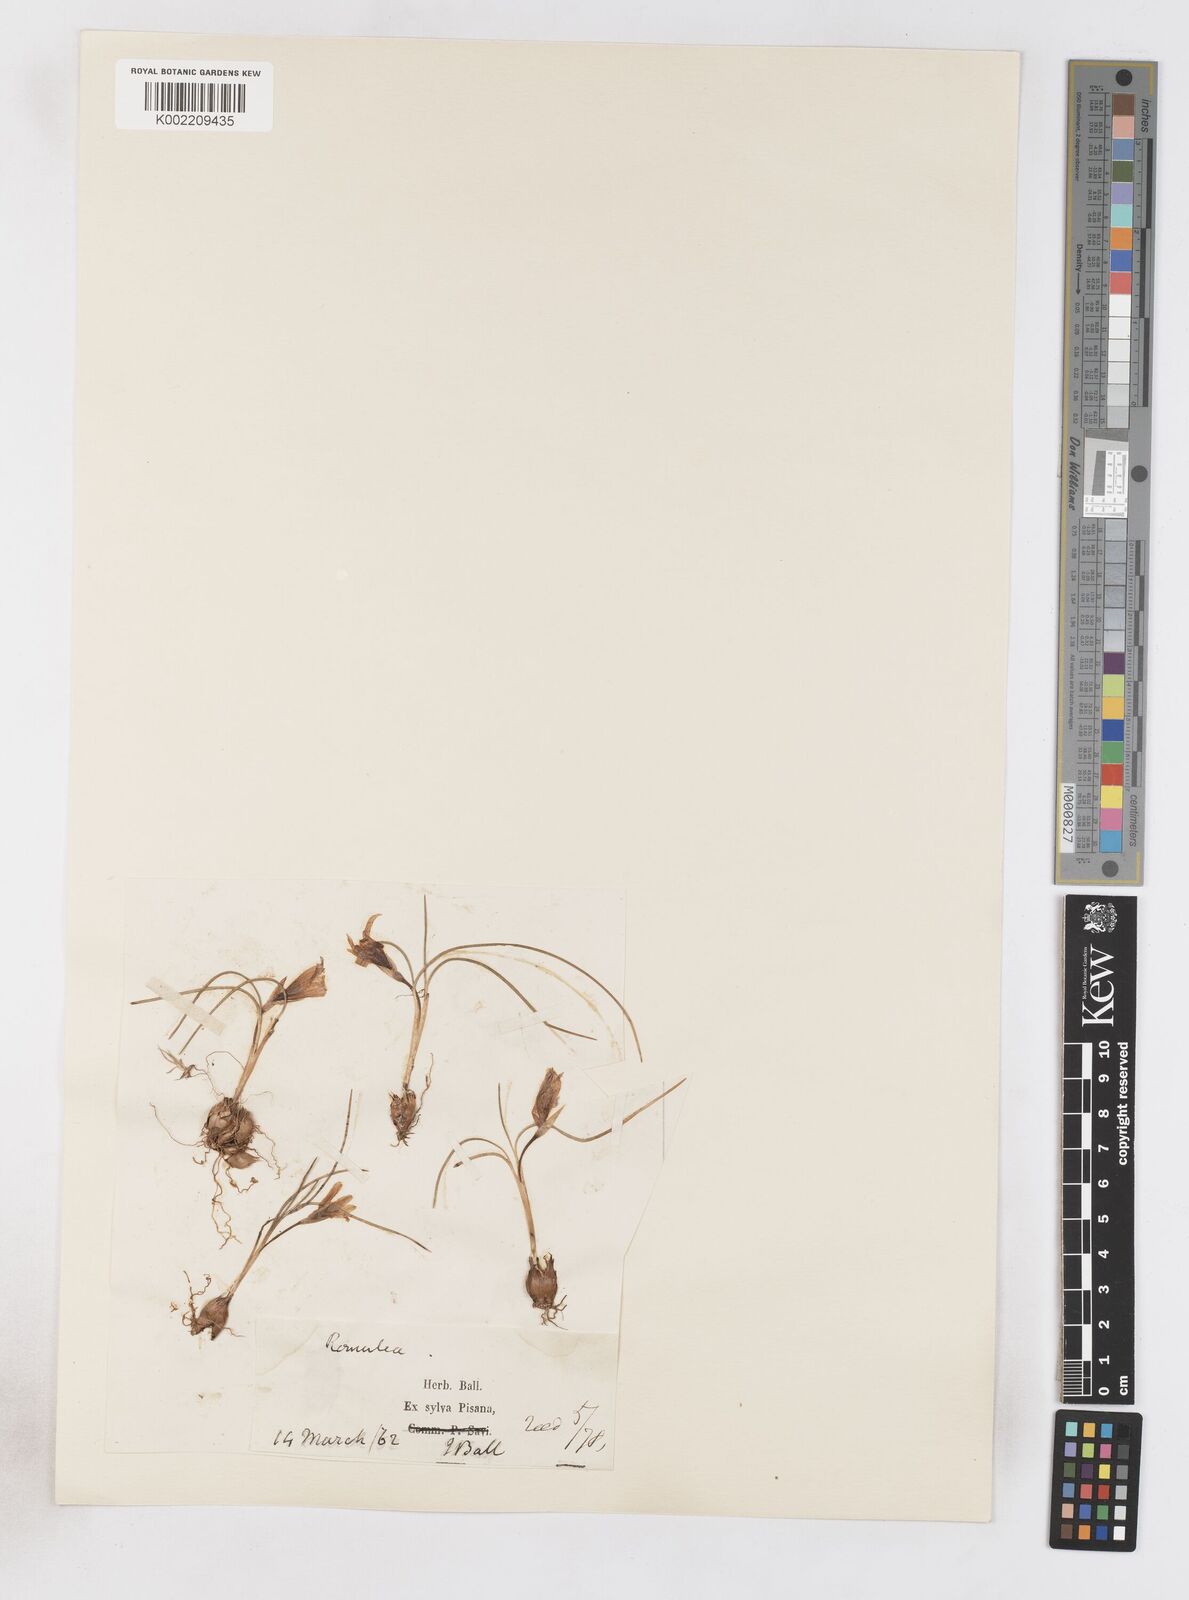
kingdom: Plantae
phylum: Tracheophyta
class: Liliopsida
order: Asparagales
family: Iridaceae
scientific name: Iridaceae
